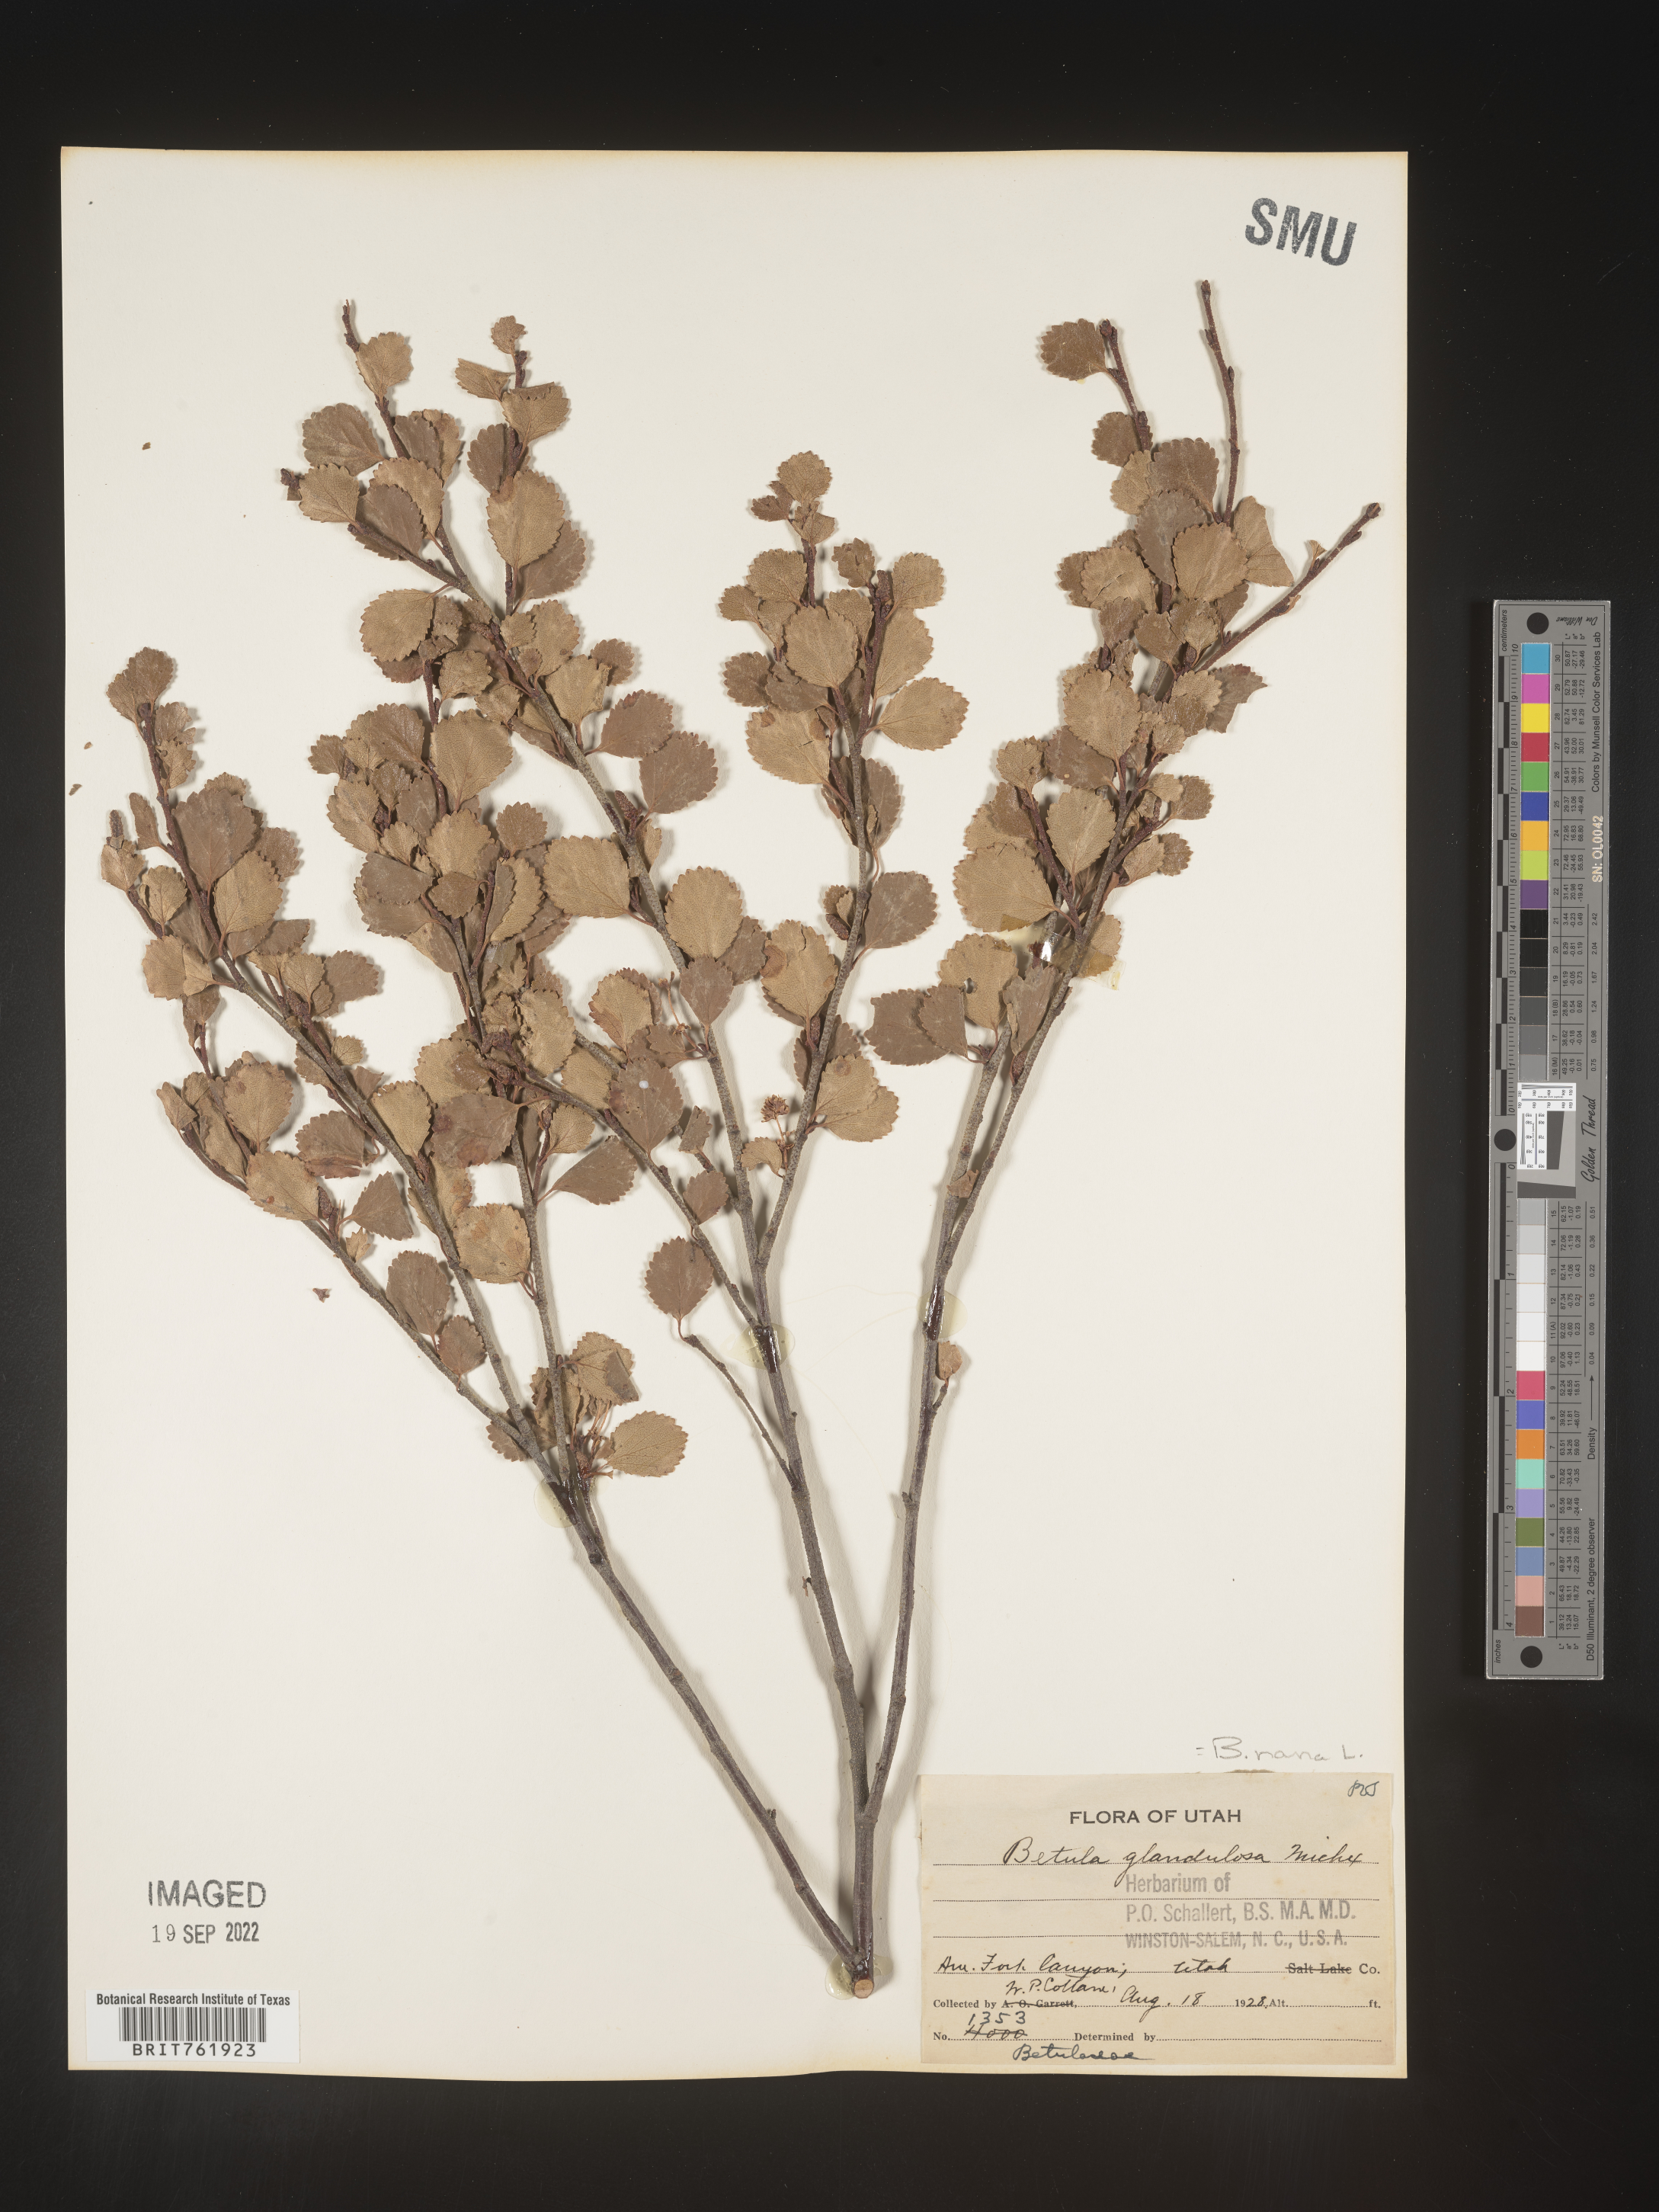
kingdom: Plantae
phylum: Tracheophyta
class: Magnoliopsida
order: Fagales
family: Betulaceae
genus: Betula
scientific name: Betula nana
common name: Arctic dwarf birch
